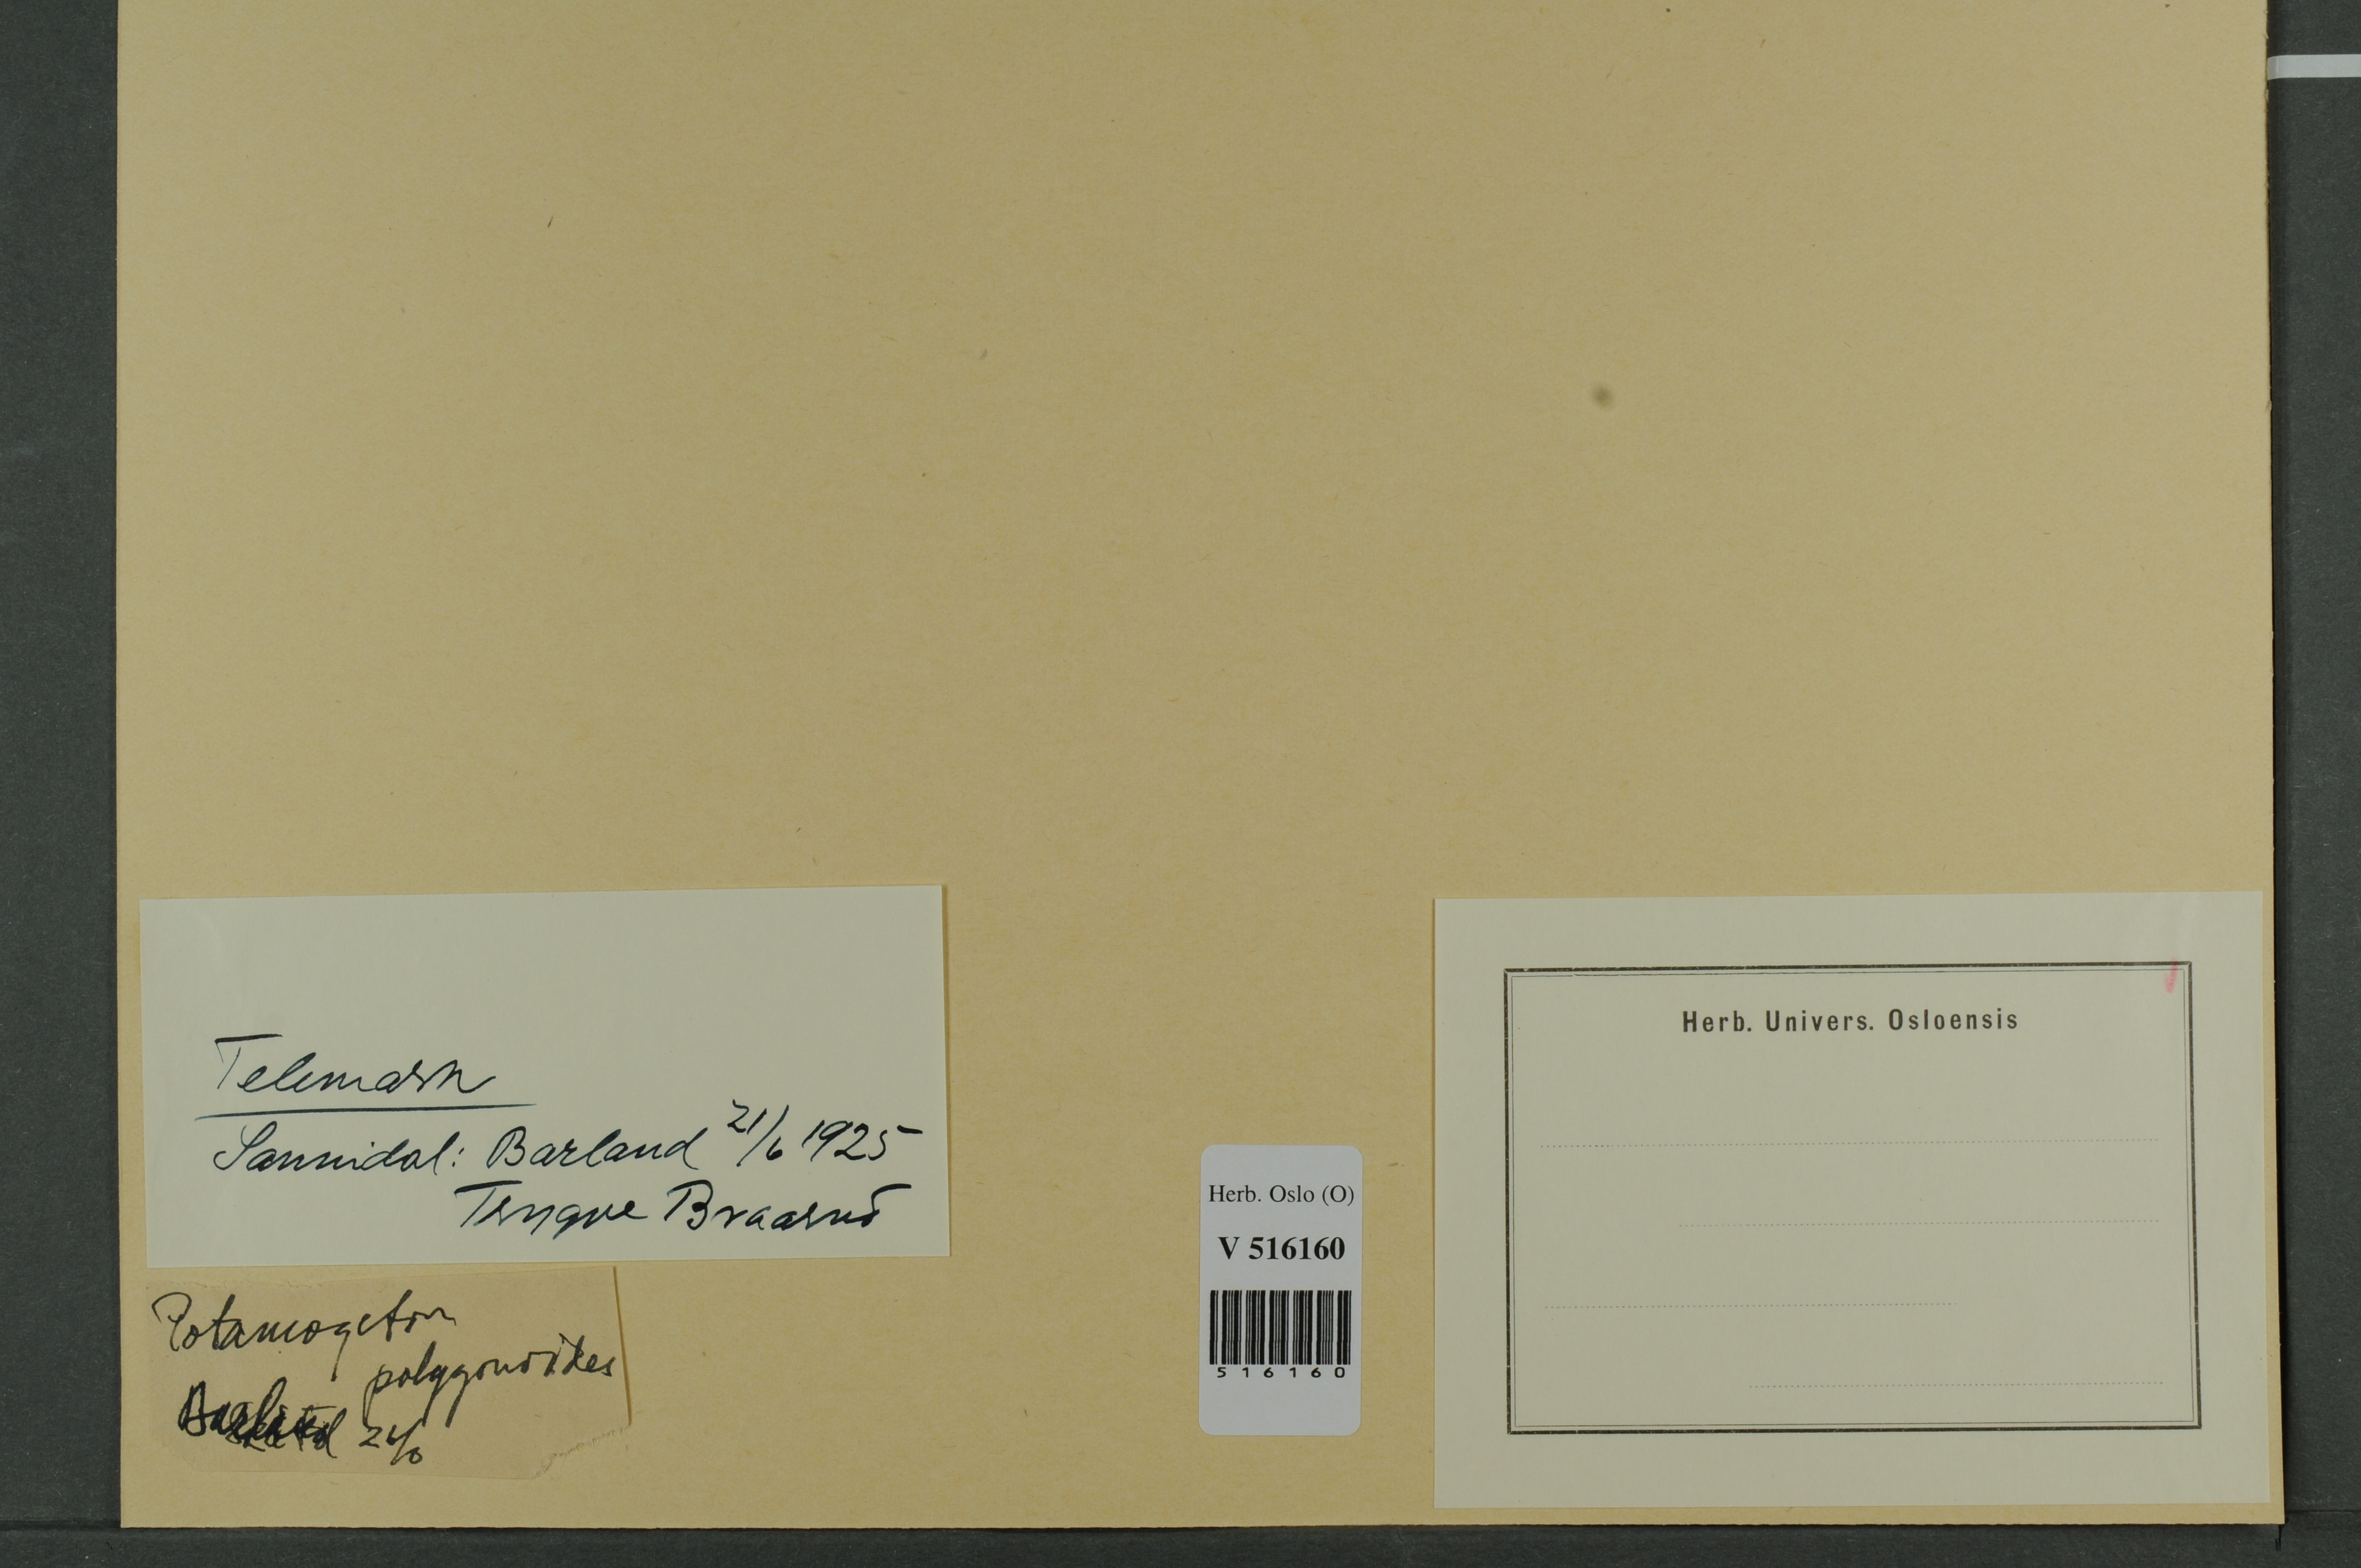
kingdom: Plantae
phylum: Tracheophyta
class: Liliopsida
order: Alismatales
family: Potamogetonaceae
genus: Potamogeton
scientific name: Potamogeton polygonifolius
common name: Bog pondweed
